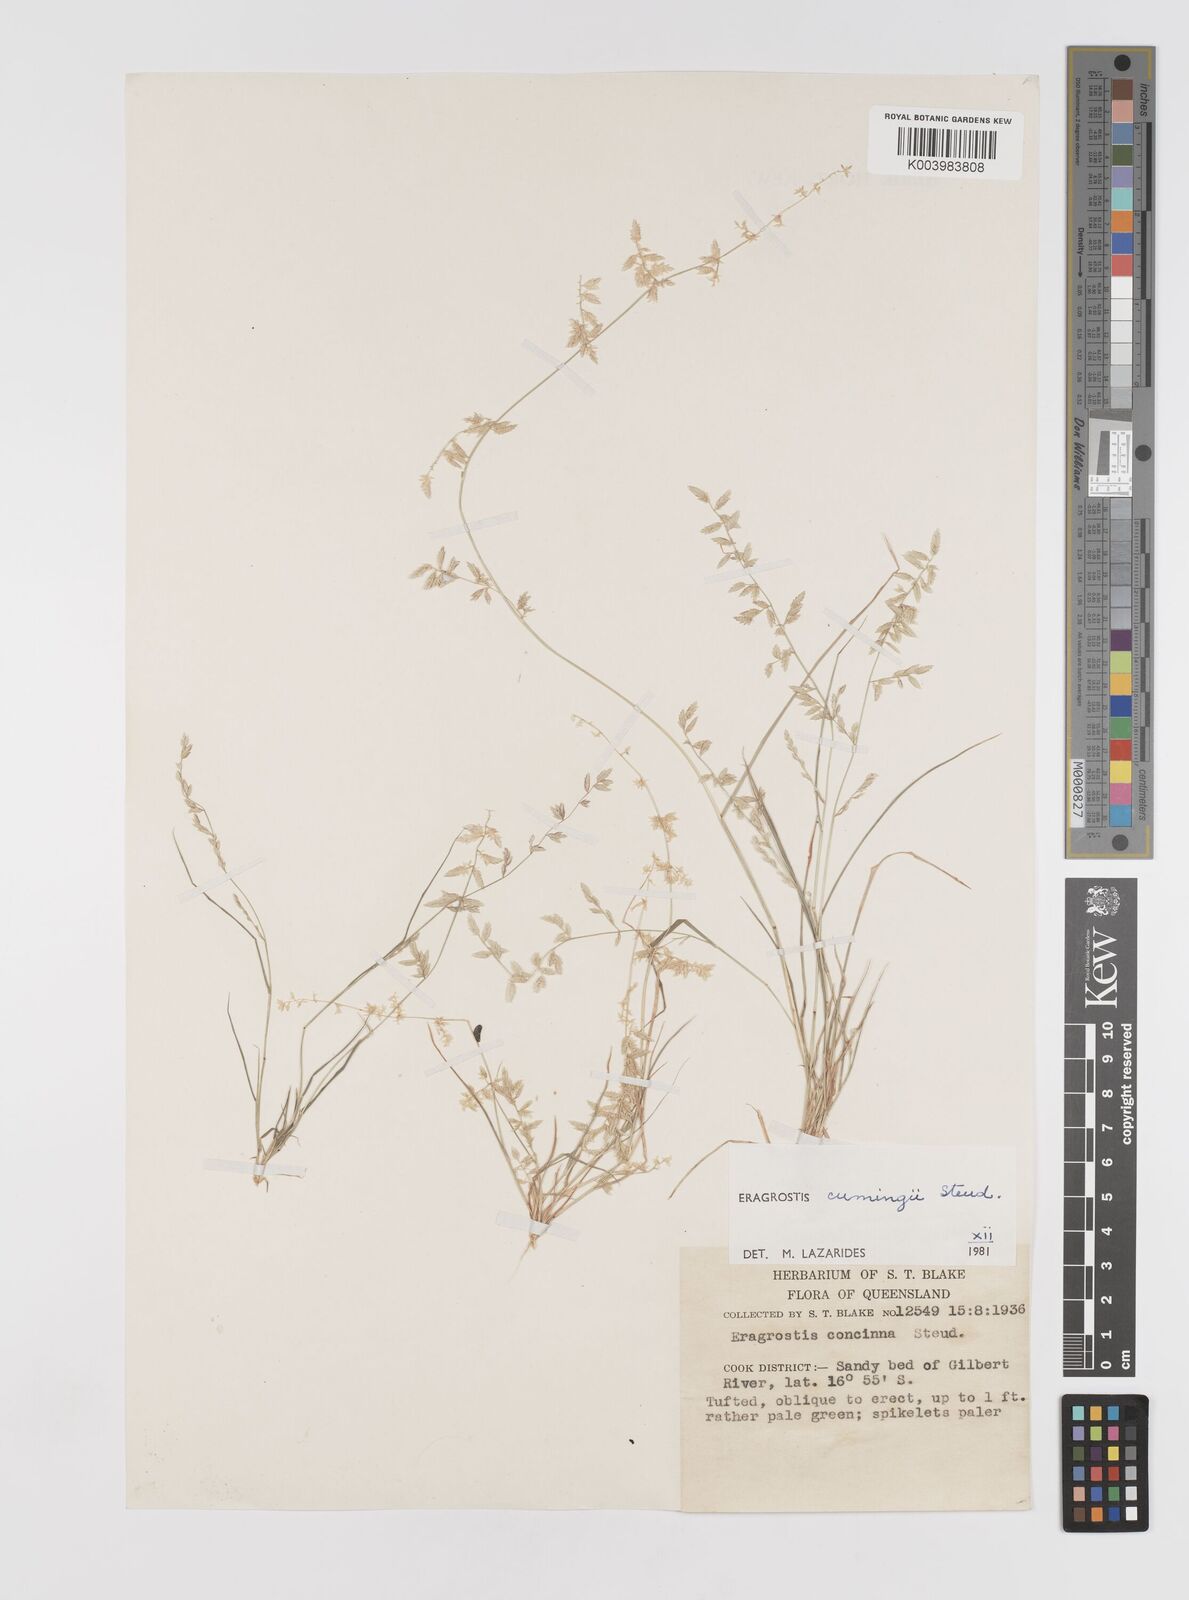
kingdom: Plantae
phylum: Tracheophyta
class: Liliopsida
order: Poales
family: Poaceae
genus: Eragrostis
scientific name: Eragrostis cumingii
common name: Cuming's lovegrass
